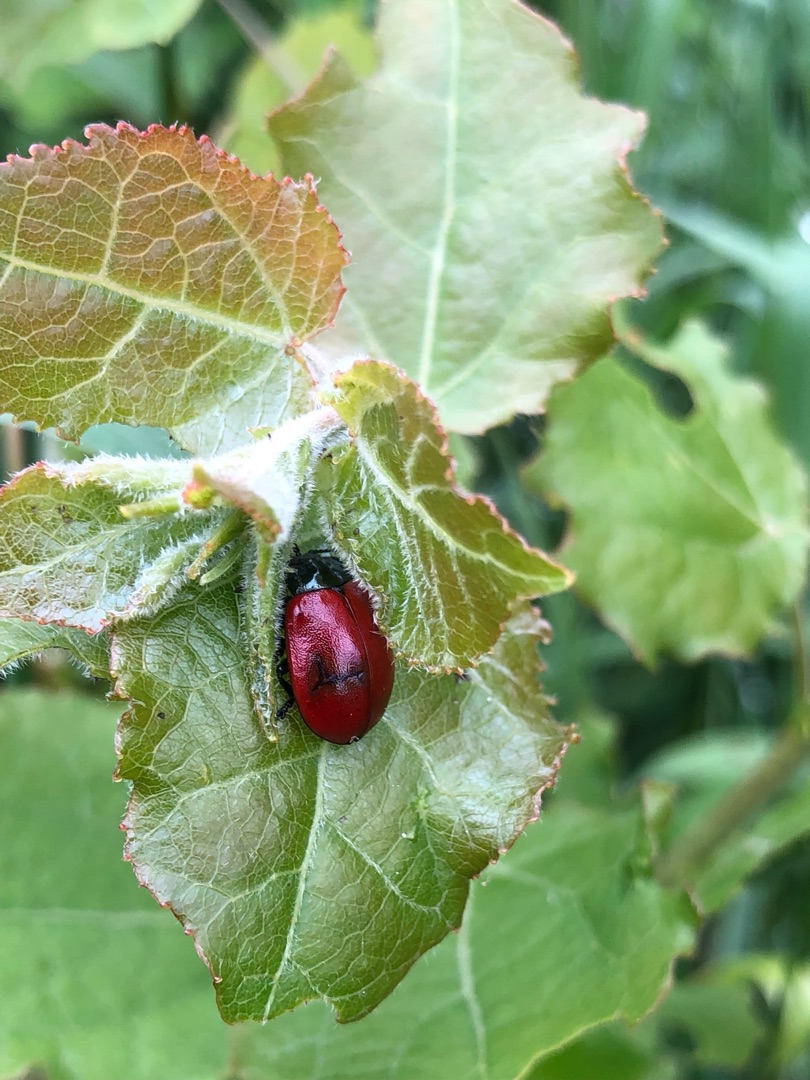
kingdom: Animalia
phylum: Arthropoda
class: Insecta
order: Coleoptera
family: Chrysomelidae
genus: Chrysomela
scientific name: Chrysomela populi
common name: Poppelbladbille
